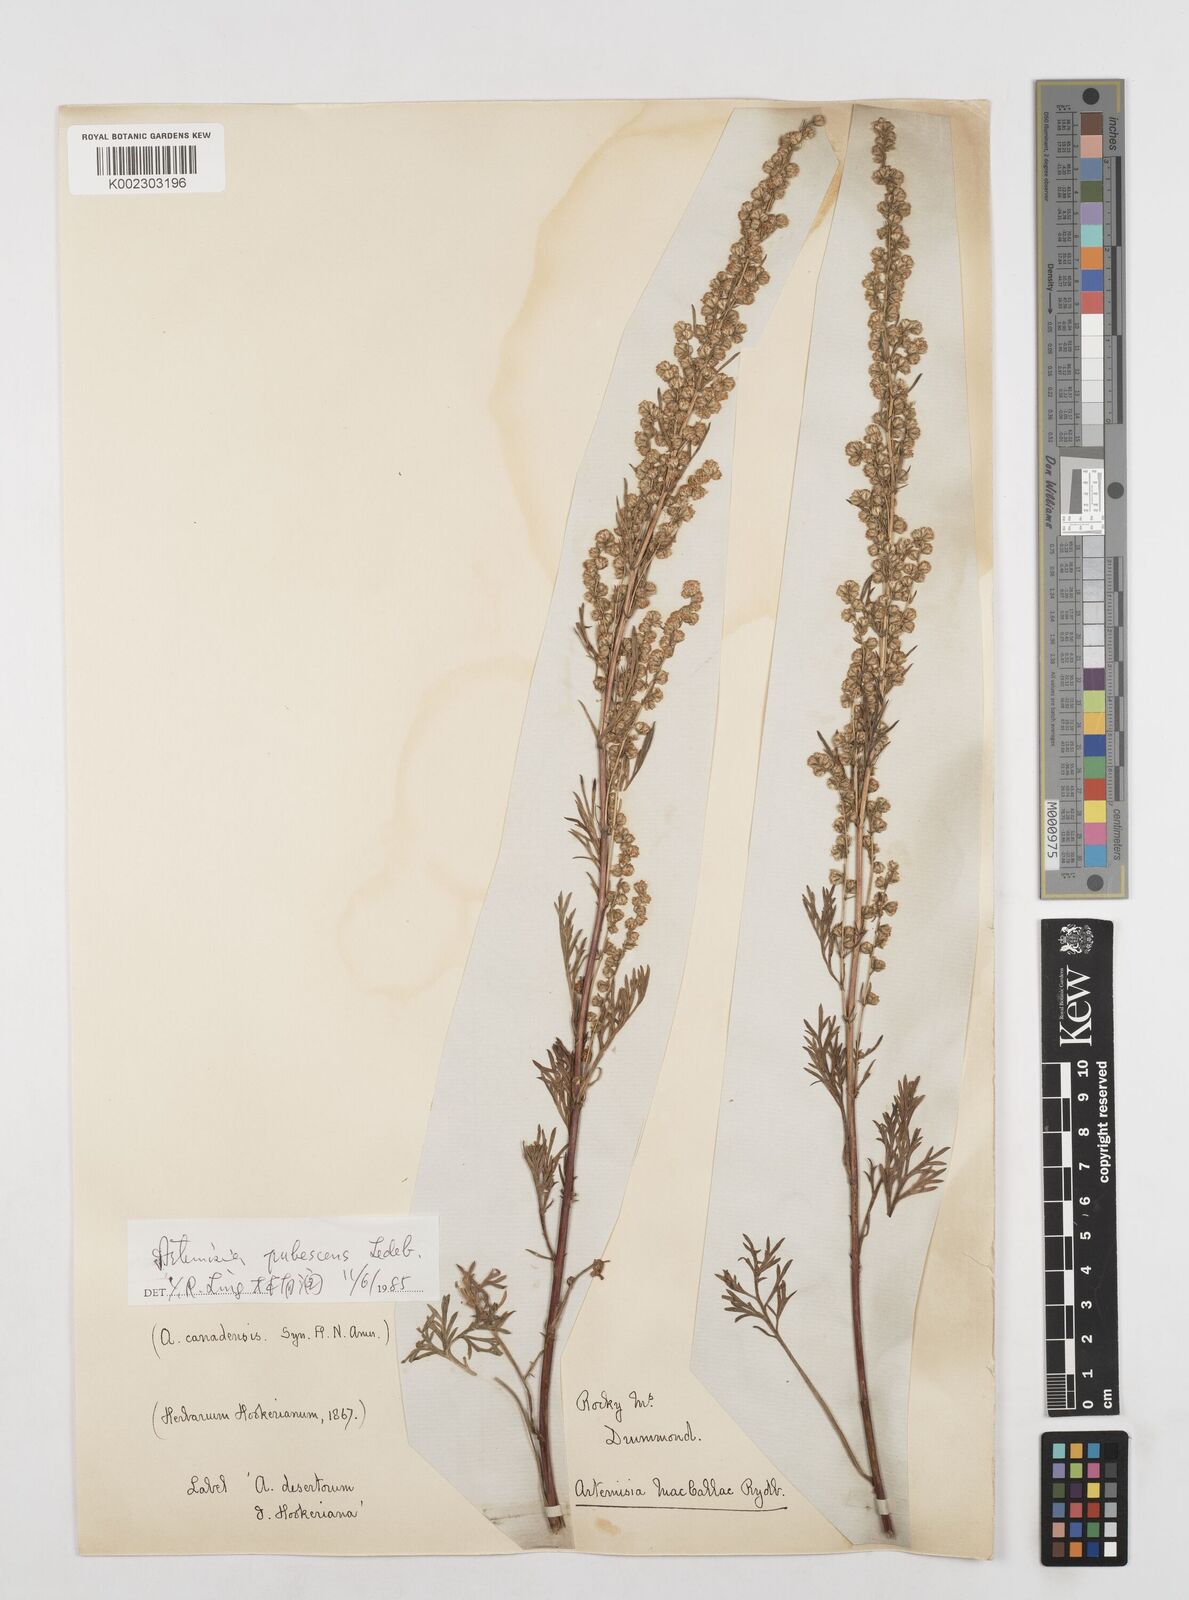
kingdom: Plantae
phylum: Tracheophyta
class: Magnoliopsida
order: Asterales
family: Asteraceae
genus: Artemisia
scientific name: Artemisia campestris
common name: Field wormwood
